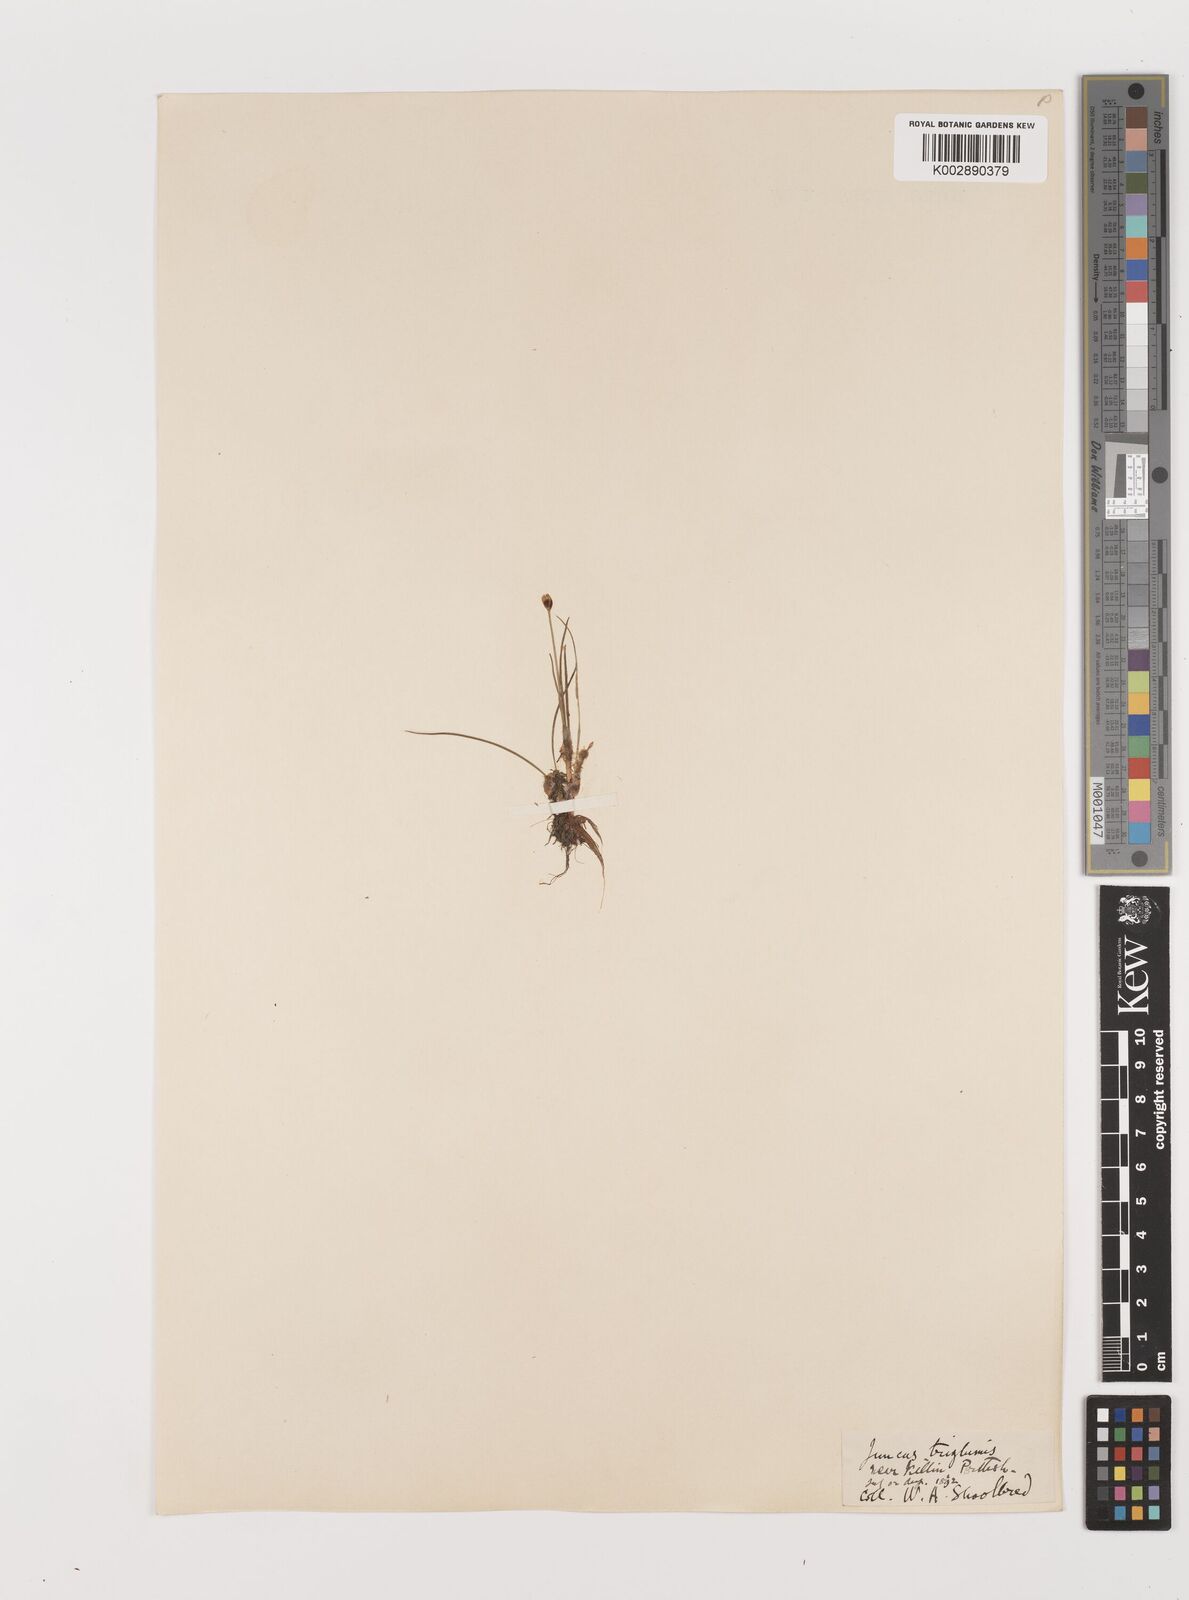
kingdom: Plantae
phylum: Tracheophyta
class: Liliopsida
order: Poales
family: Juncaceae
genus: Juncus
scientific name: Juncus triglumis
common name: Three-flowered rush
